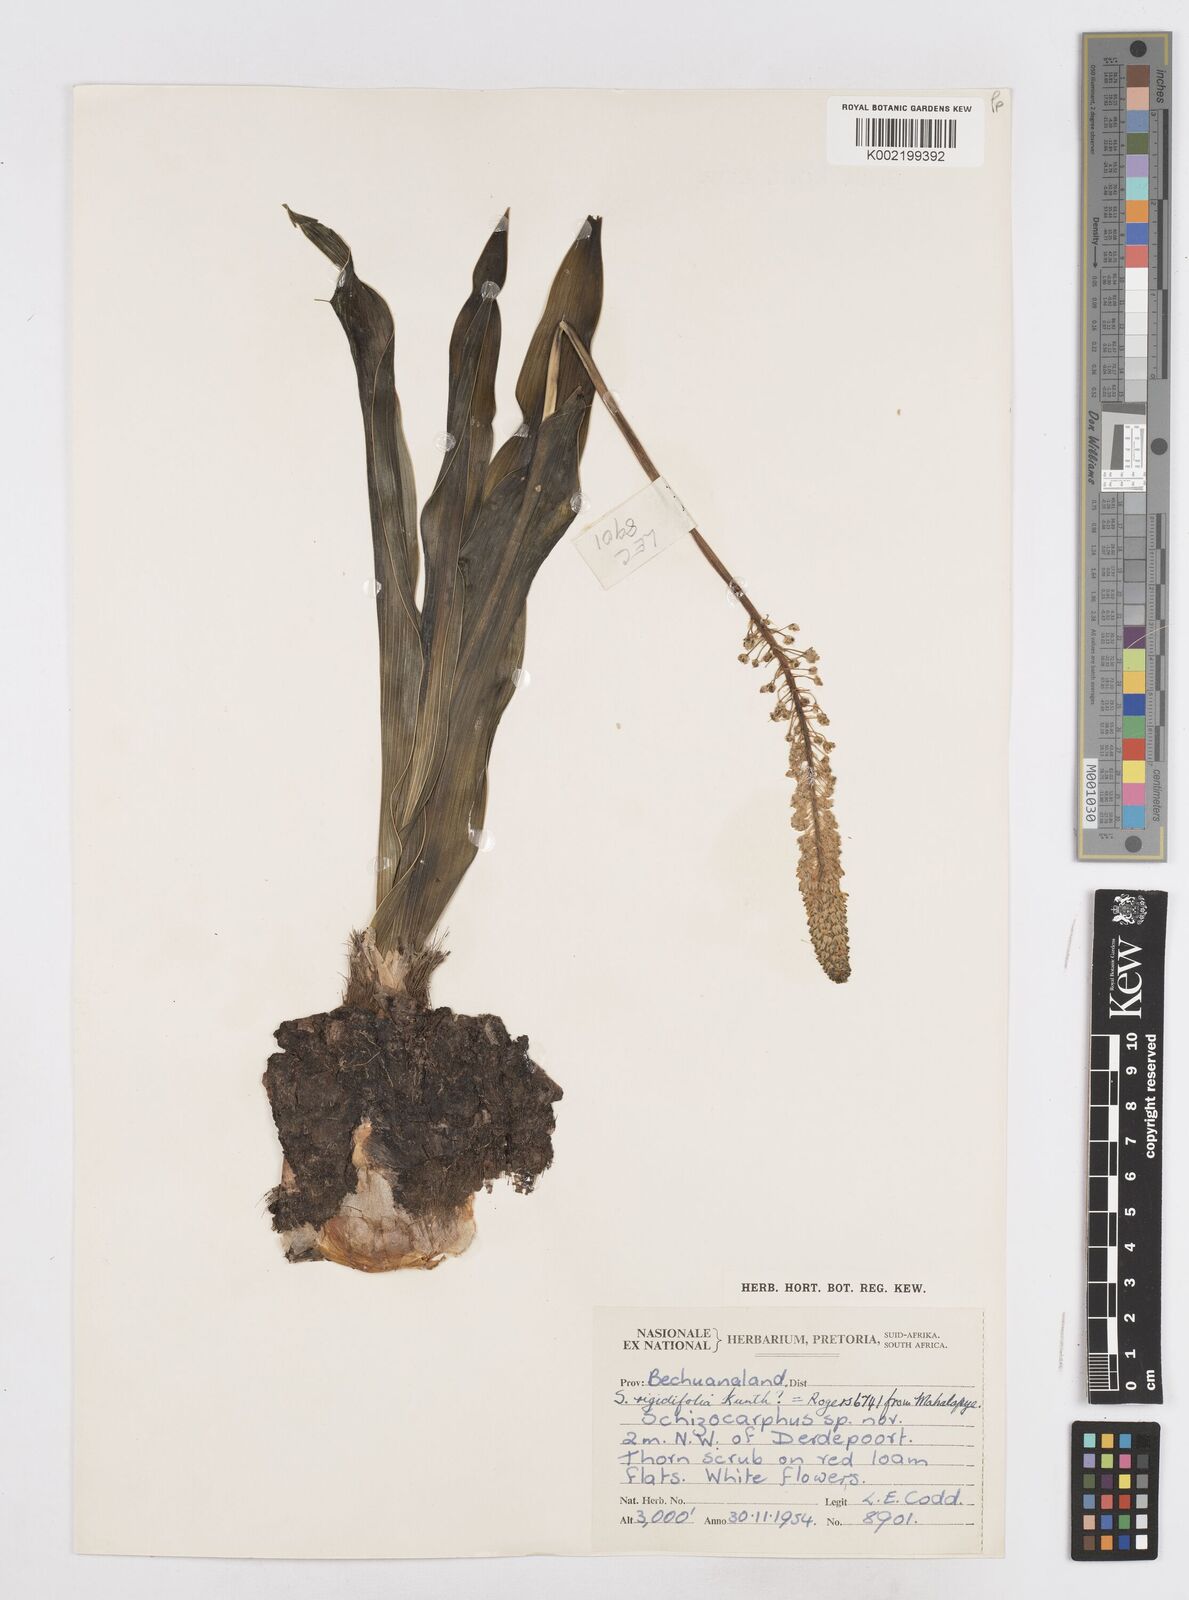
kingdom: Plantae
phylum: Tracheophyta
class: Liliopsida
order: Asparagales
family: Asparagaceae
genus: Schizocarphus
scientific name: Schizocarphus nervosus
